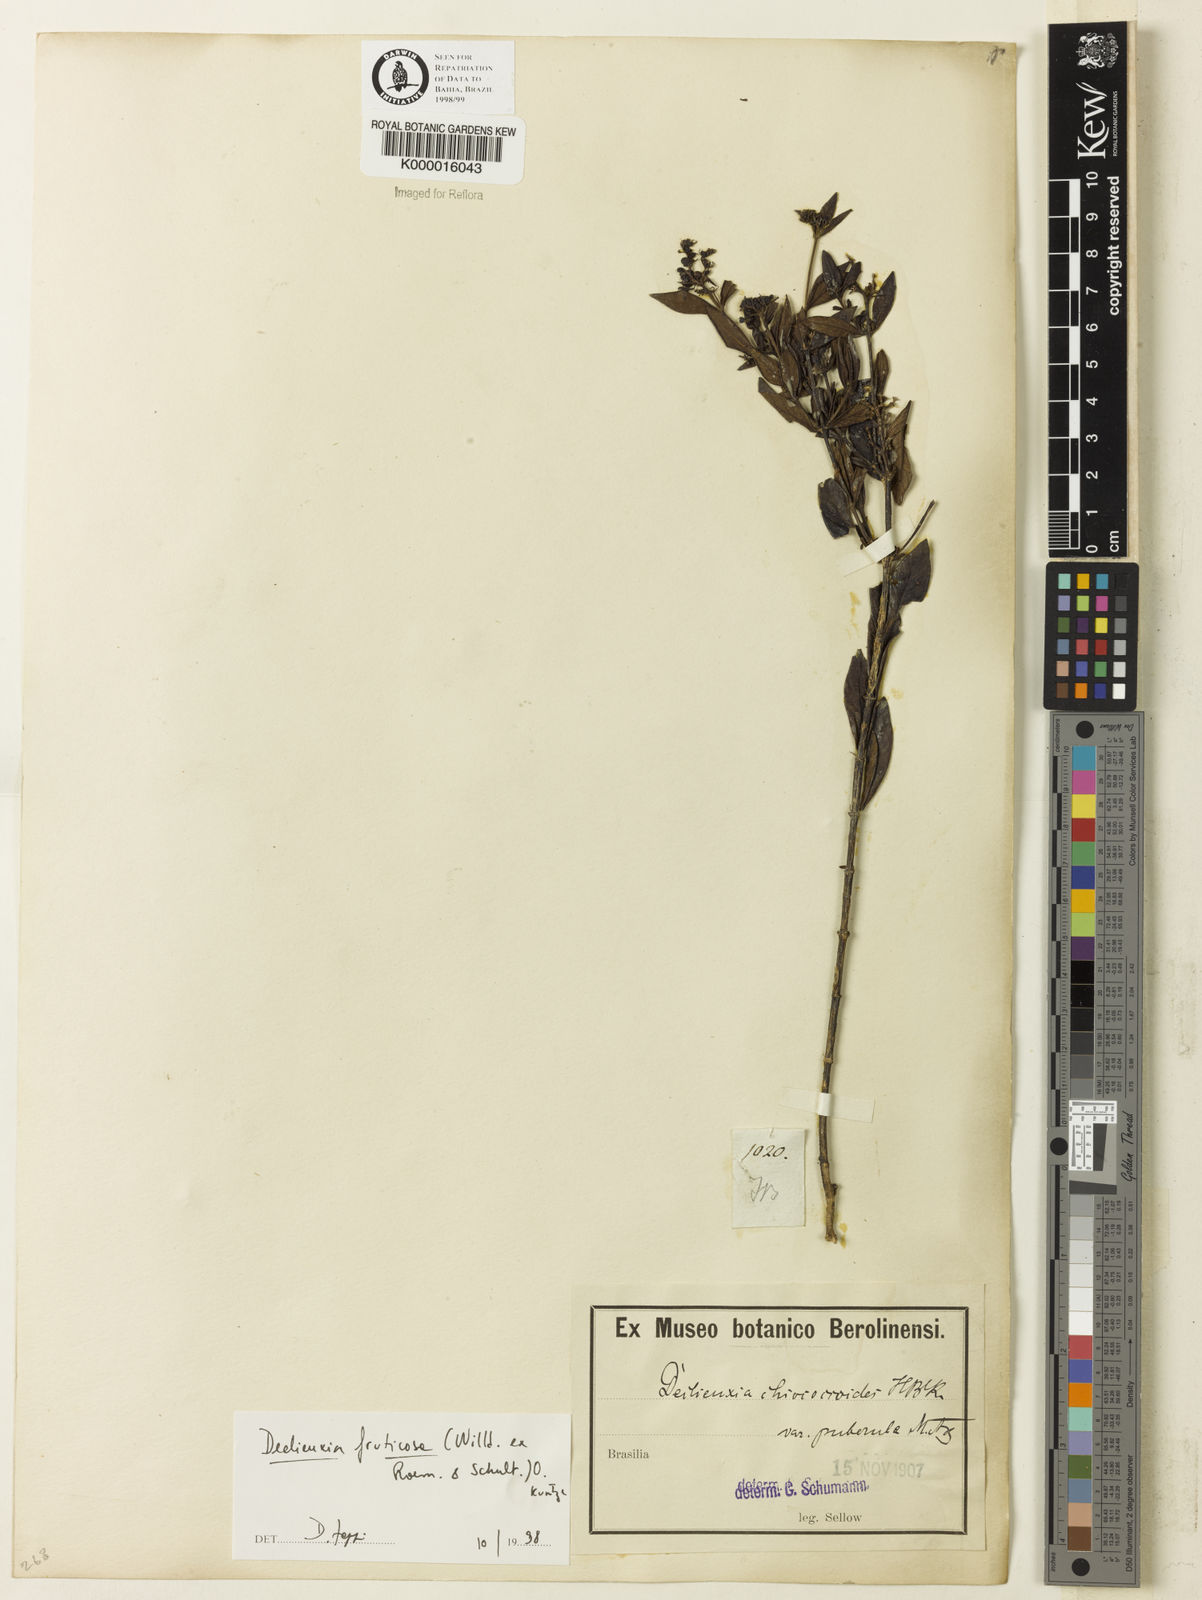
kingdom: Plantae
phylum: Tracheophyta
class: Magnoliopsida
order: Gentianales
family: Rubiaceae
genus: Declieuxia
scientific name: Declieuxia fruticosa
